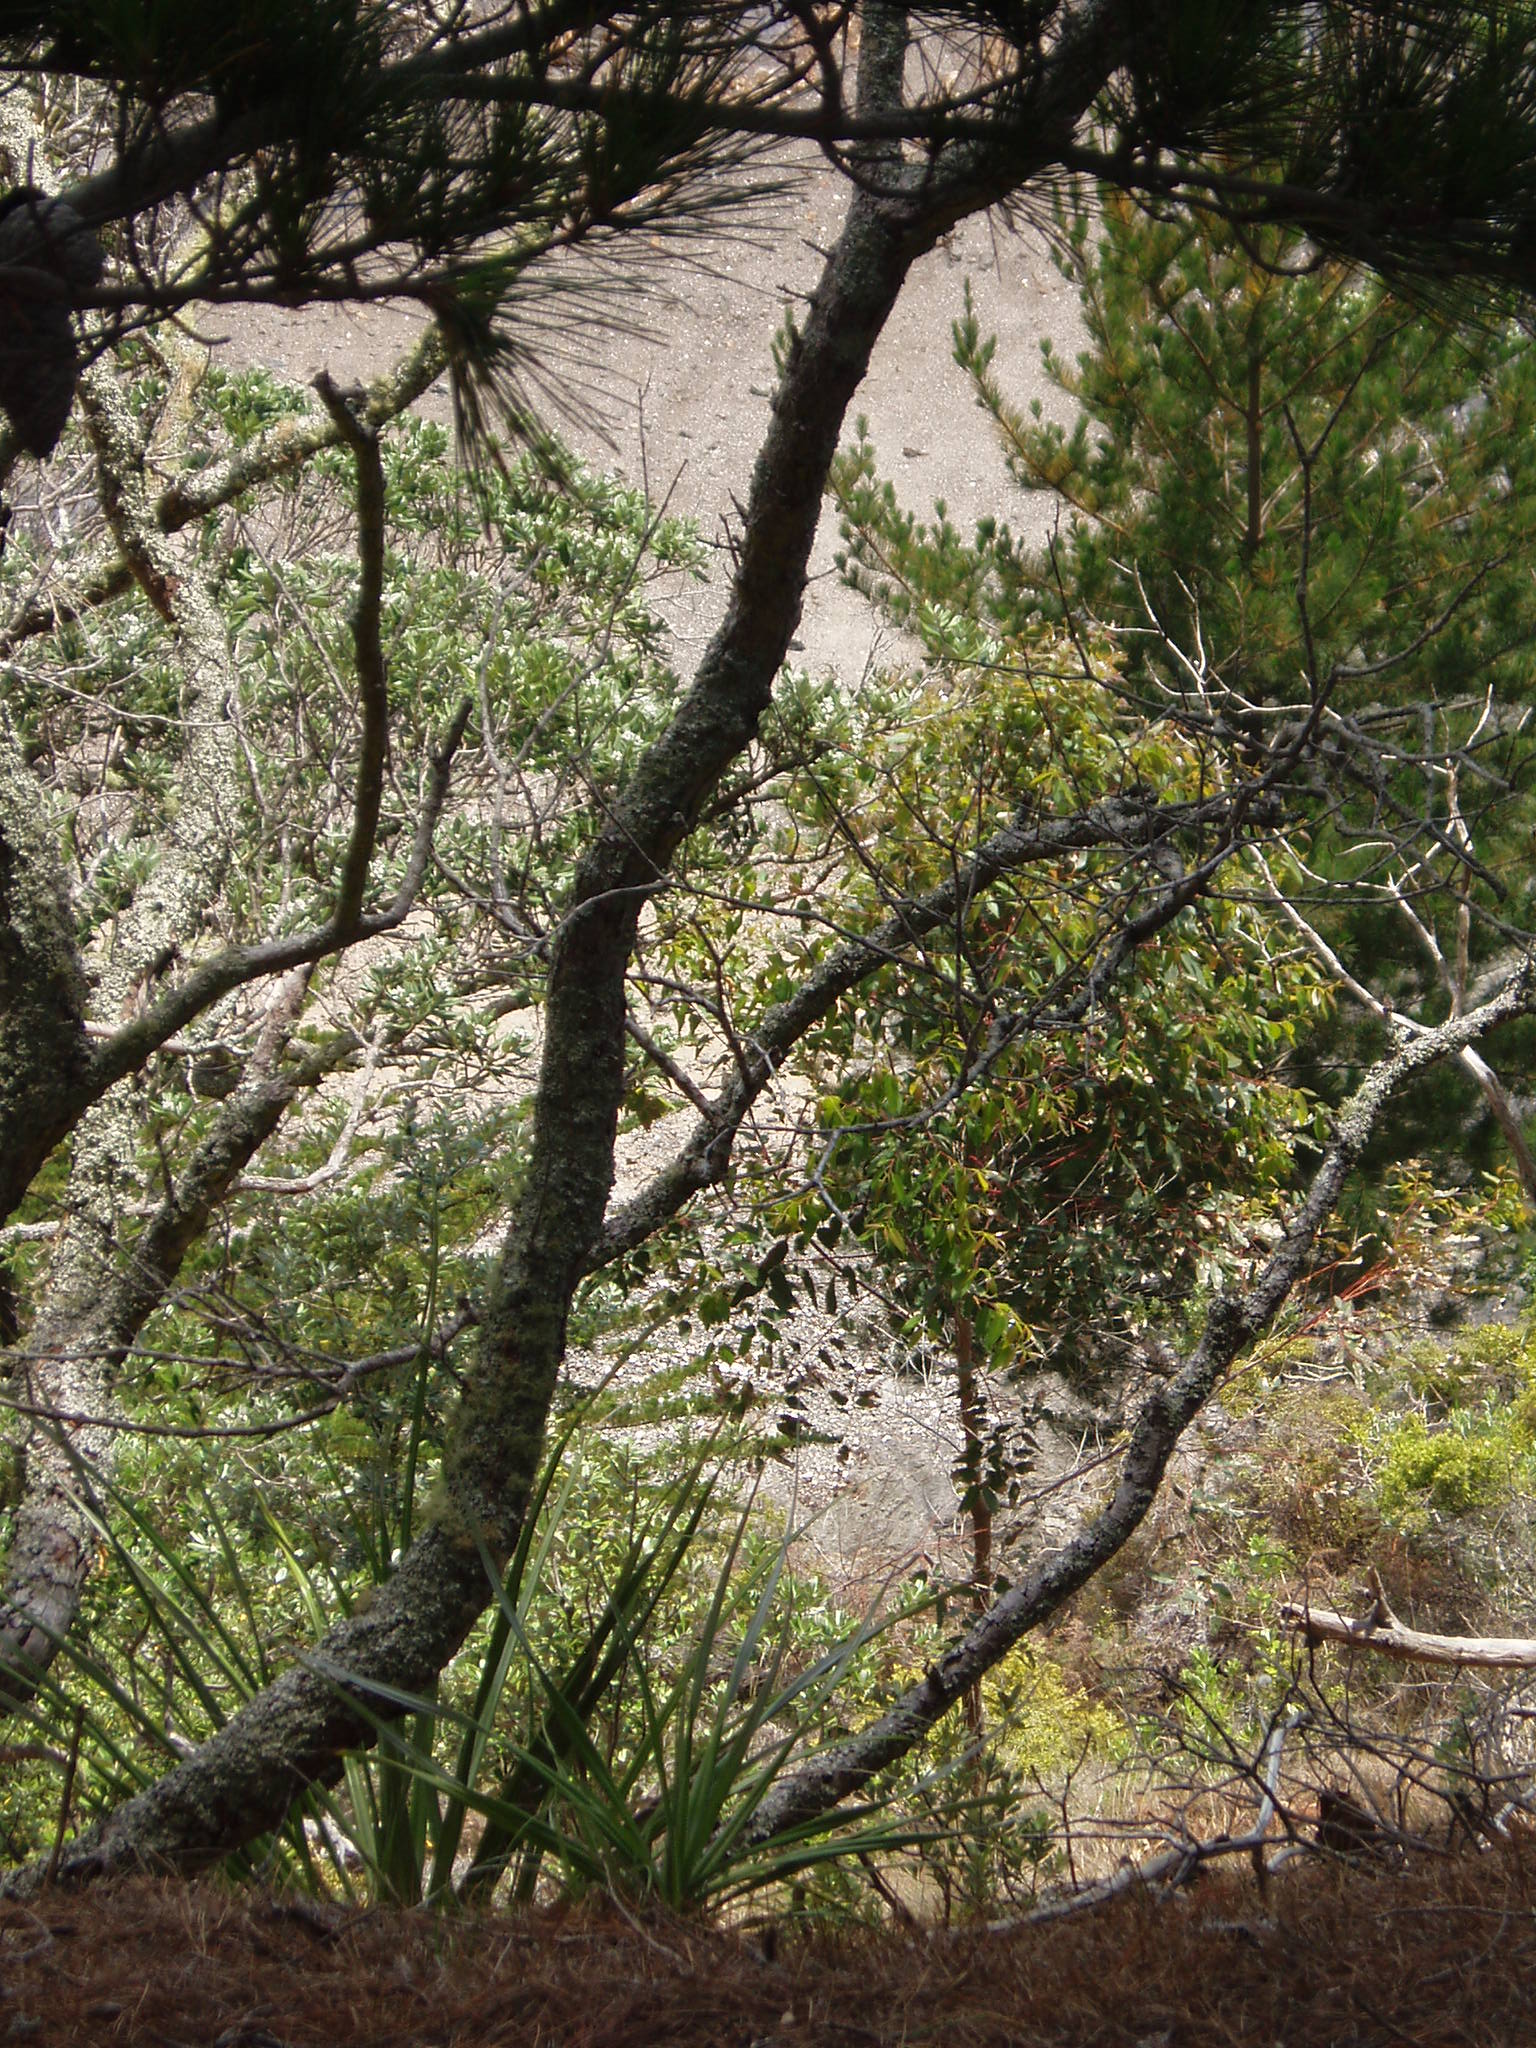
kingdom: Plantae
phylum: Tracheophyta
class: Magnoliopsida
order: Myrtales
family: Myrtaceae
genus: Eucalyptus
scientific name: Eucalyptus saligna
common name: Blue gum
